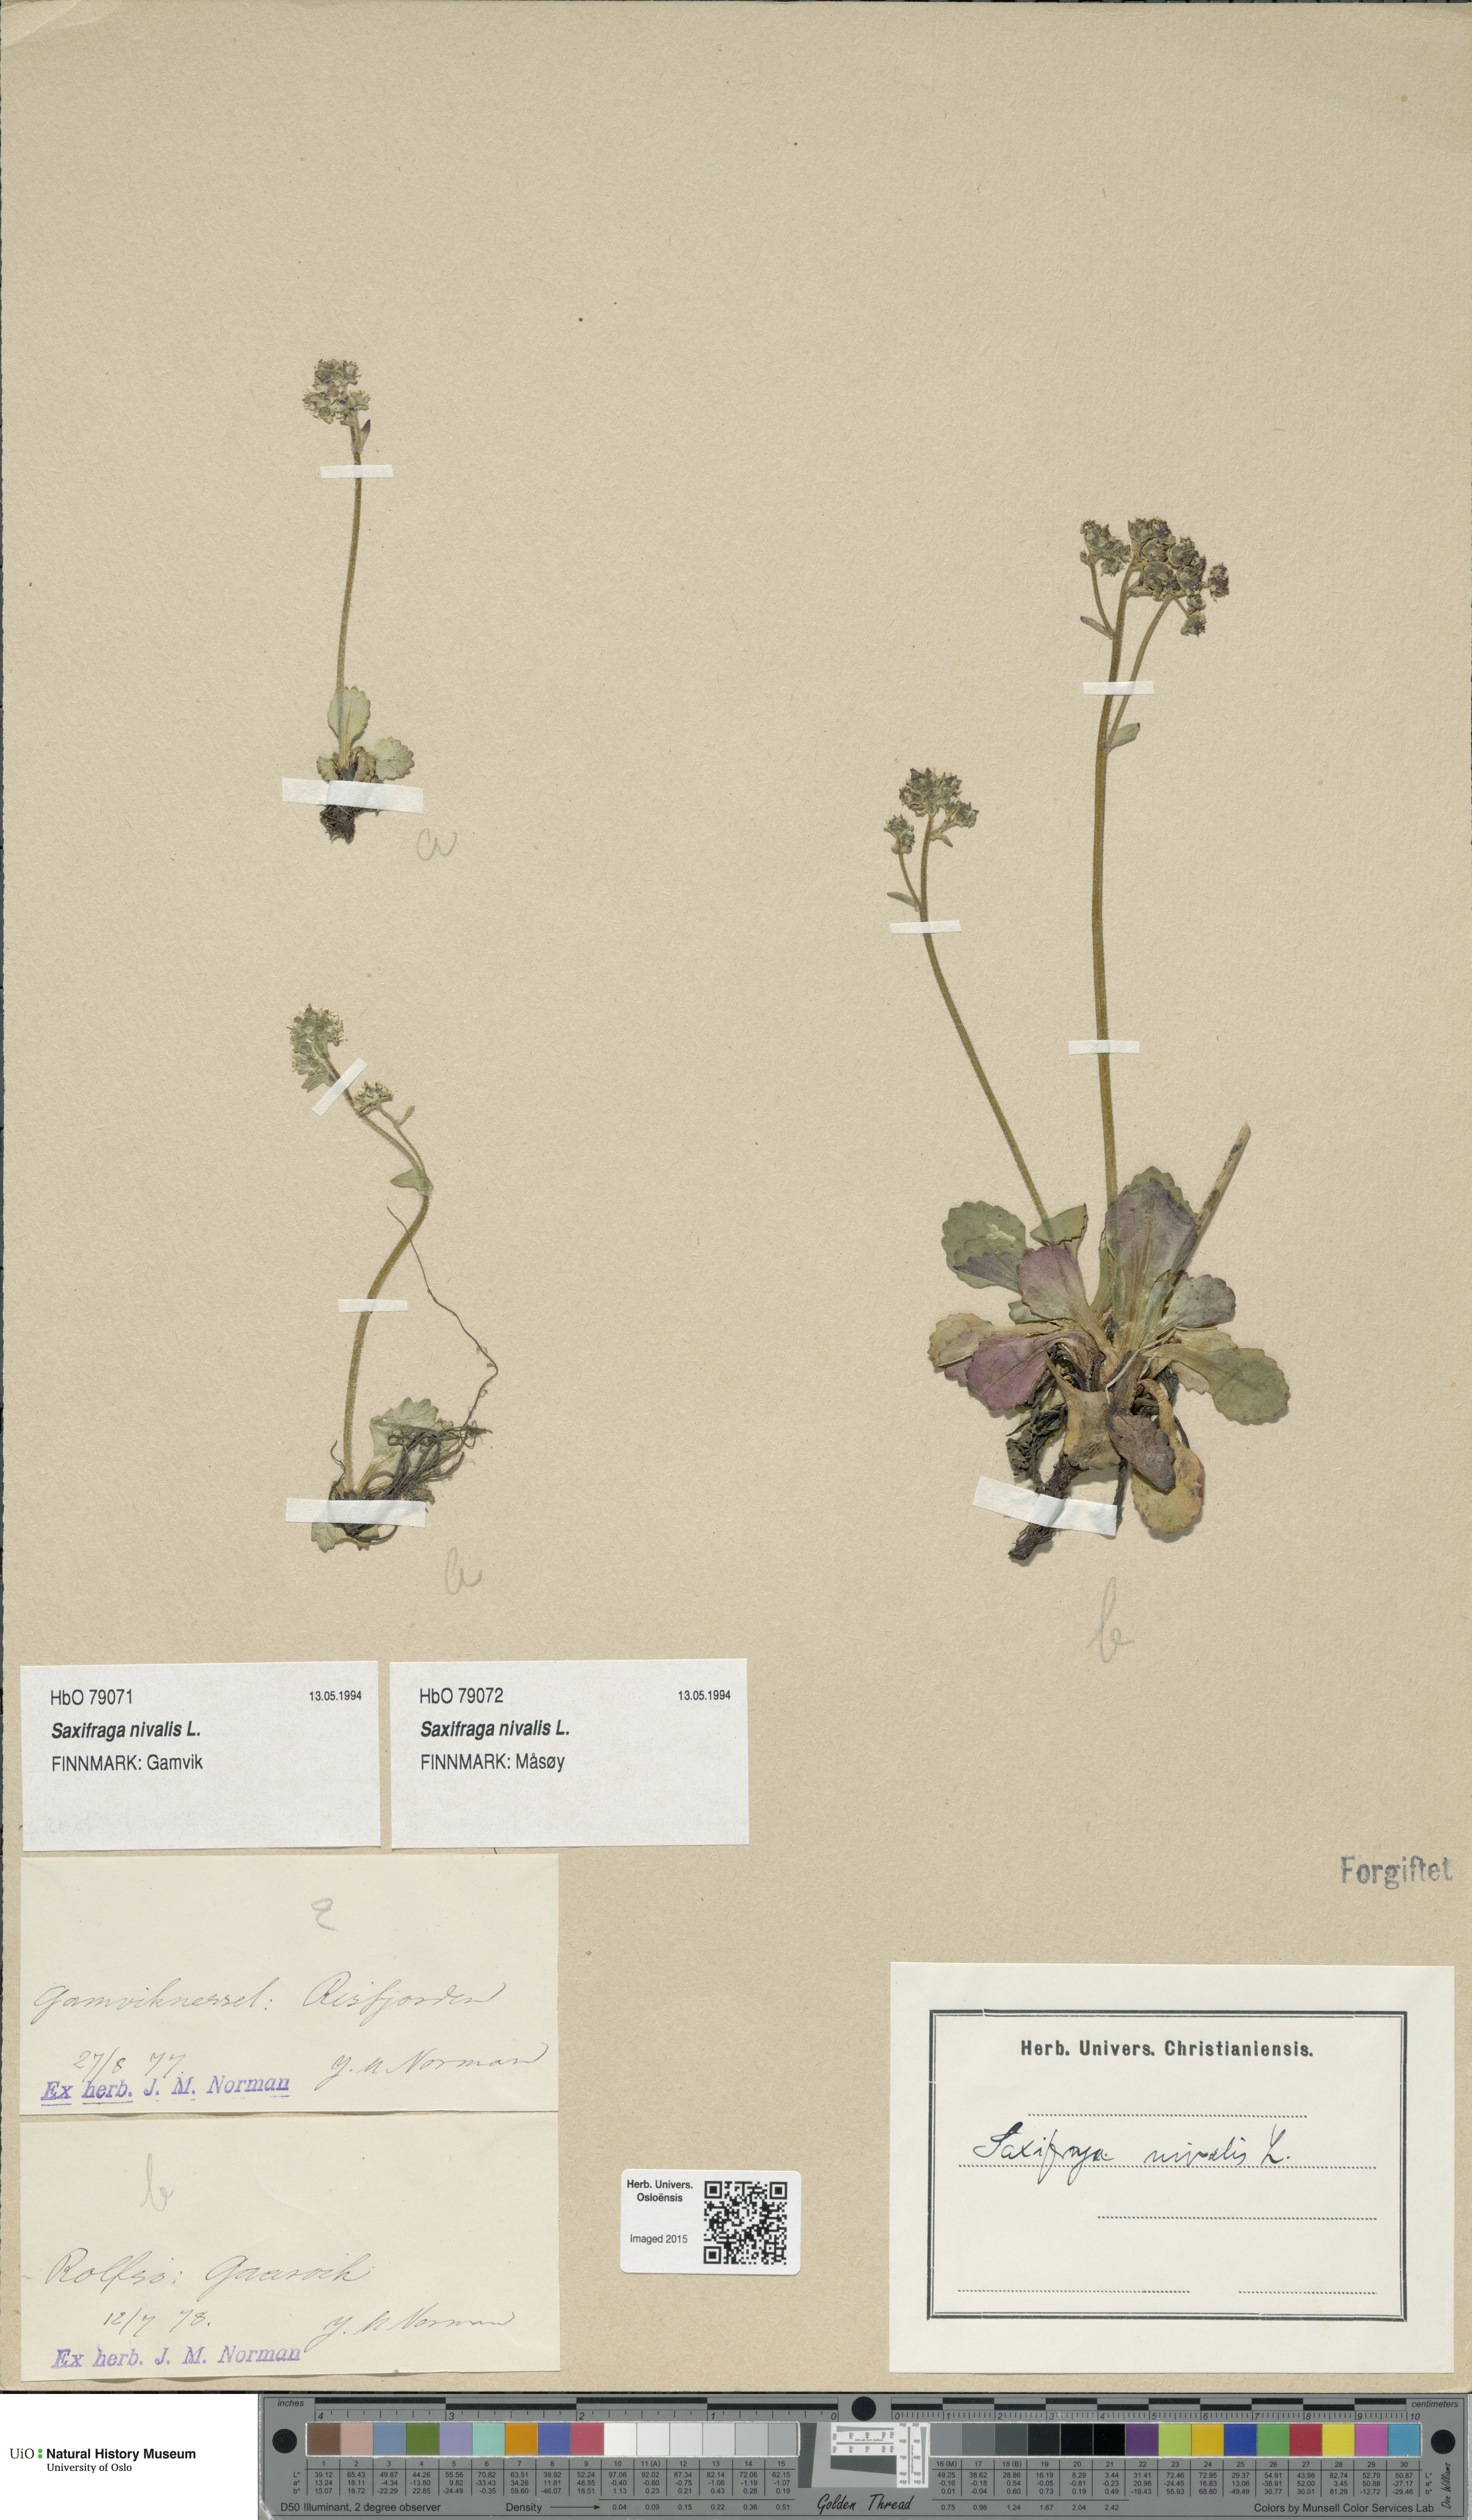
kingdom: Plantae
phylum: Tracheophyta
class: Magnoliopsida
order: Saxifragales
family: Saxifragaceae
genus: Micranthes
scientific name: Micranthes nivalis
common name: Alpine saxifrage
